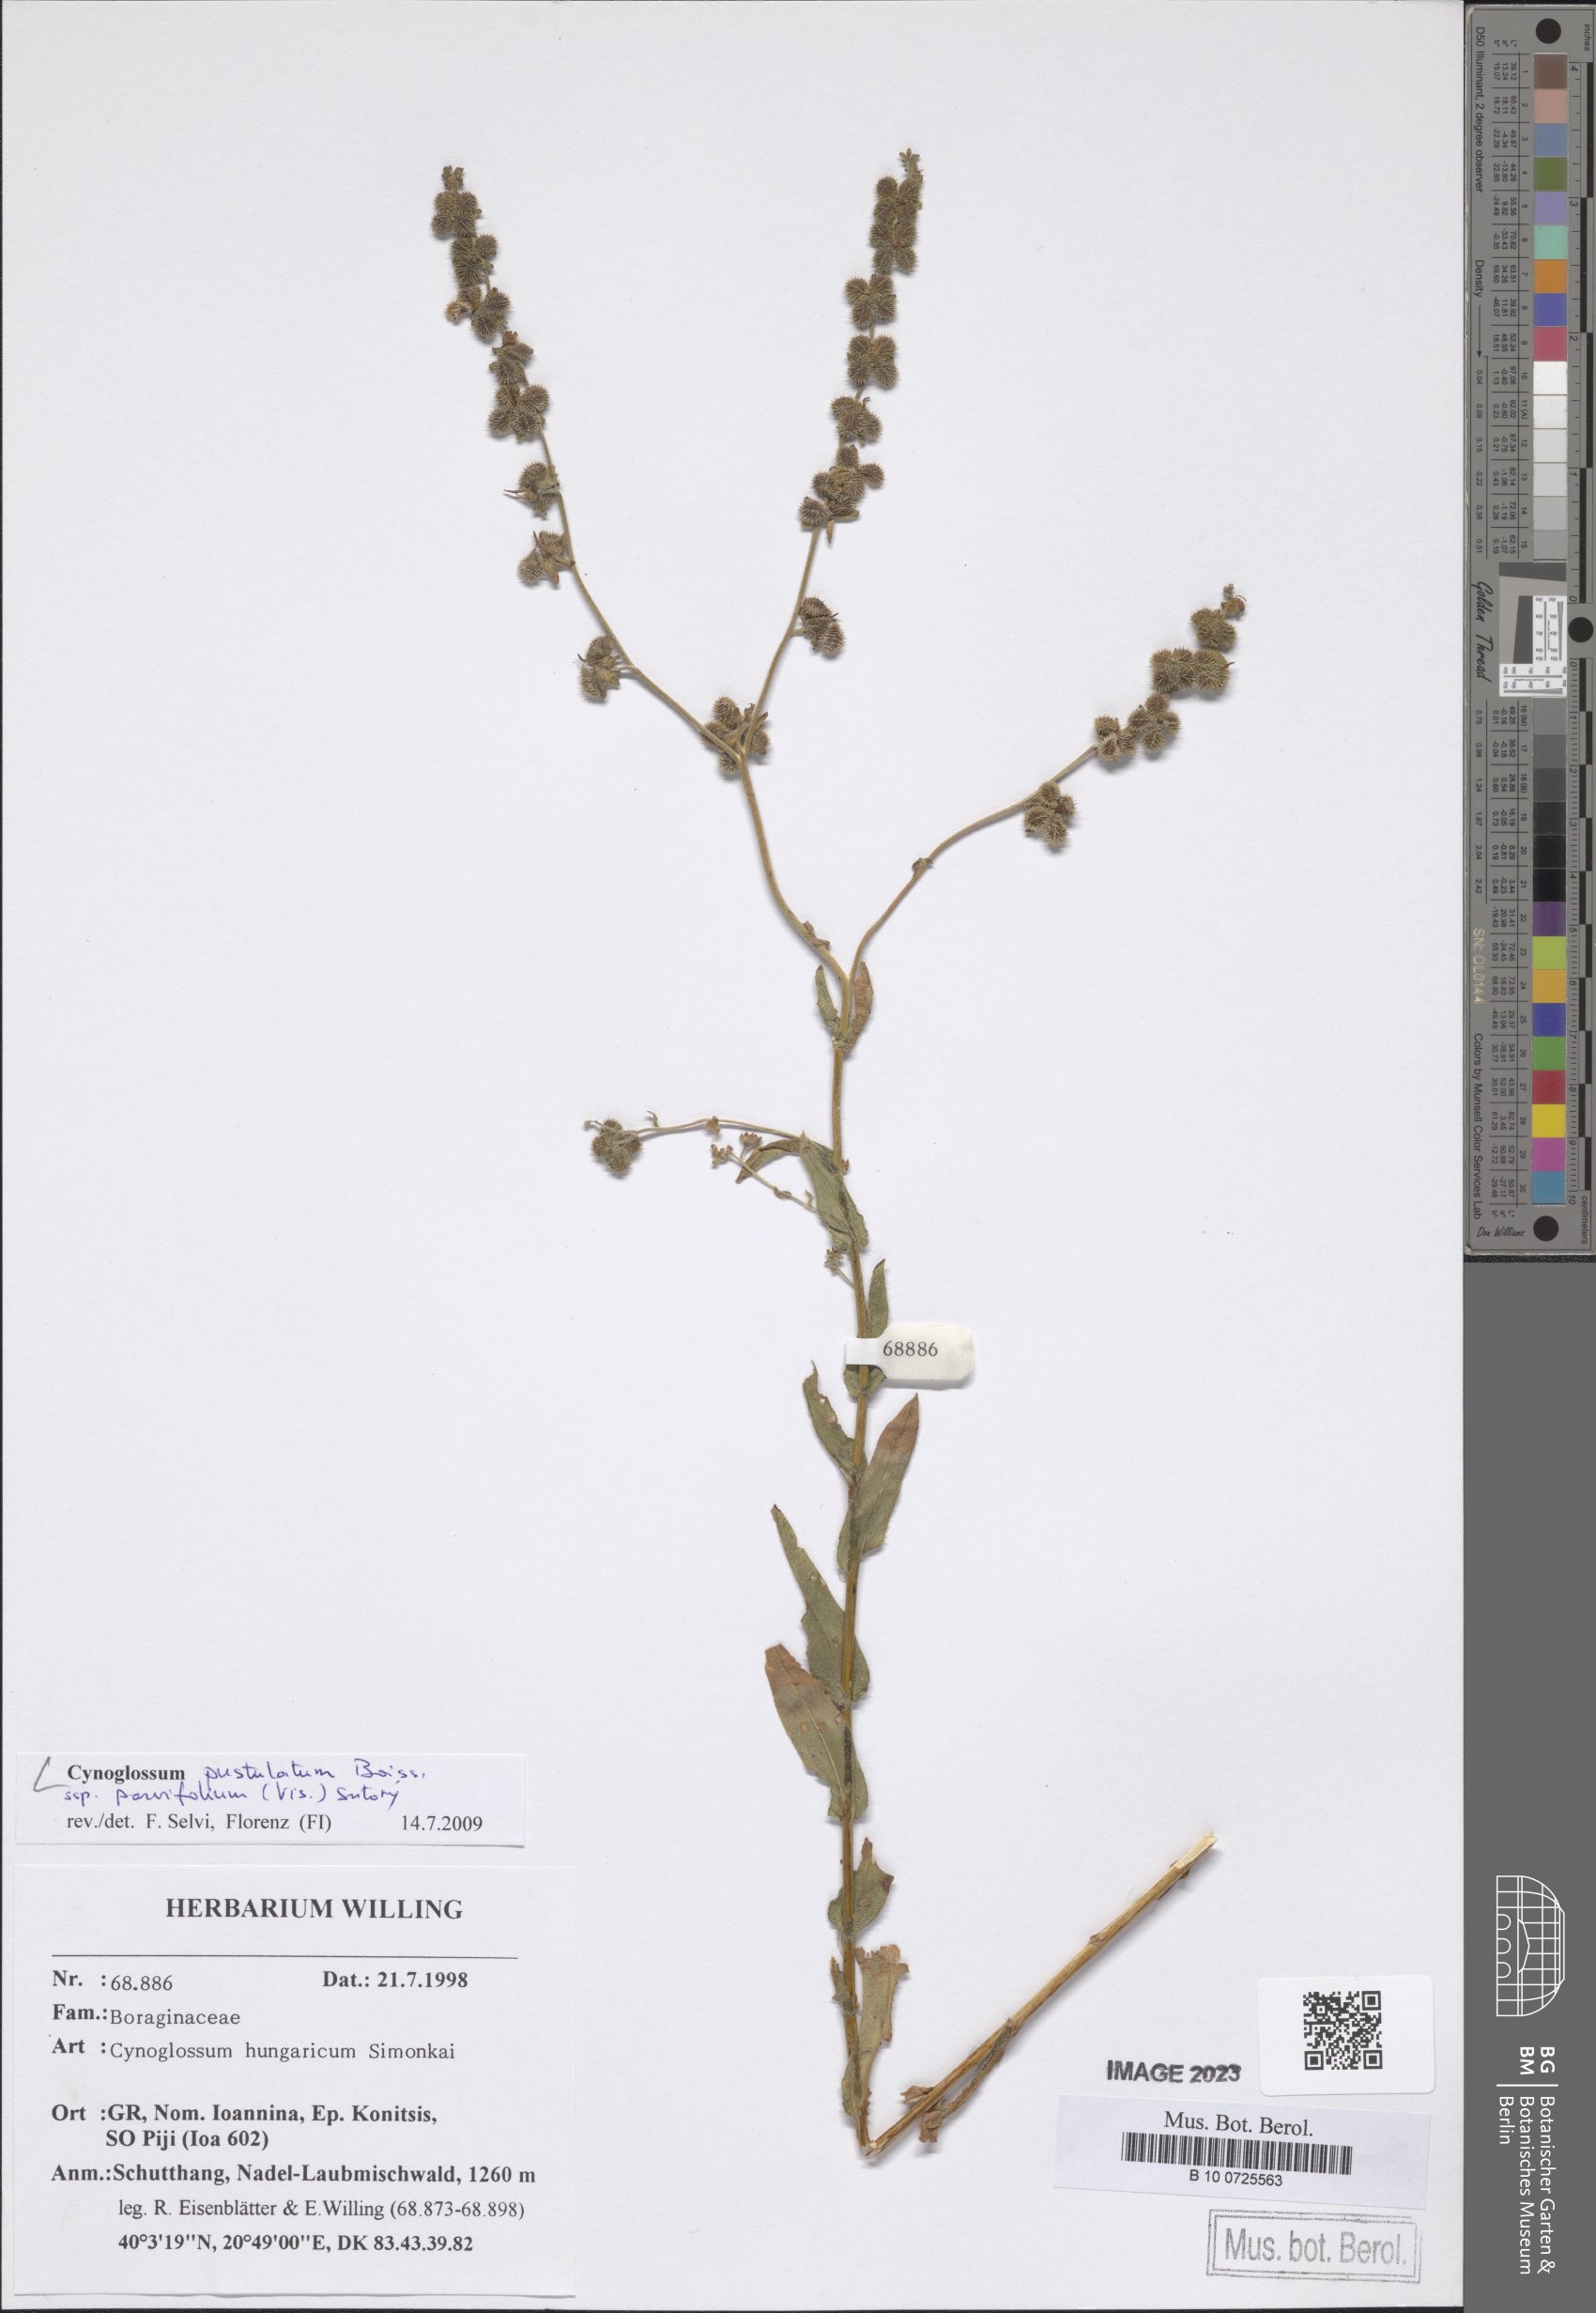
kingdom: Plantae
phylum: Tracheophyta
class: Magnoliopsida
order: Boraginales
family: Boraginaceae
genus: Cynoglossum
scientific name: Cynoglossum pustulatum
